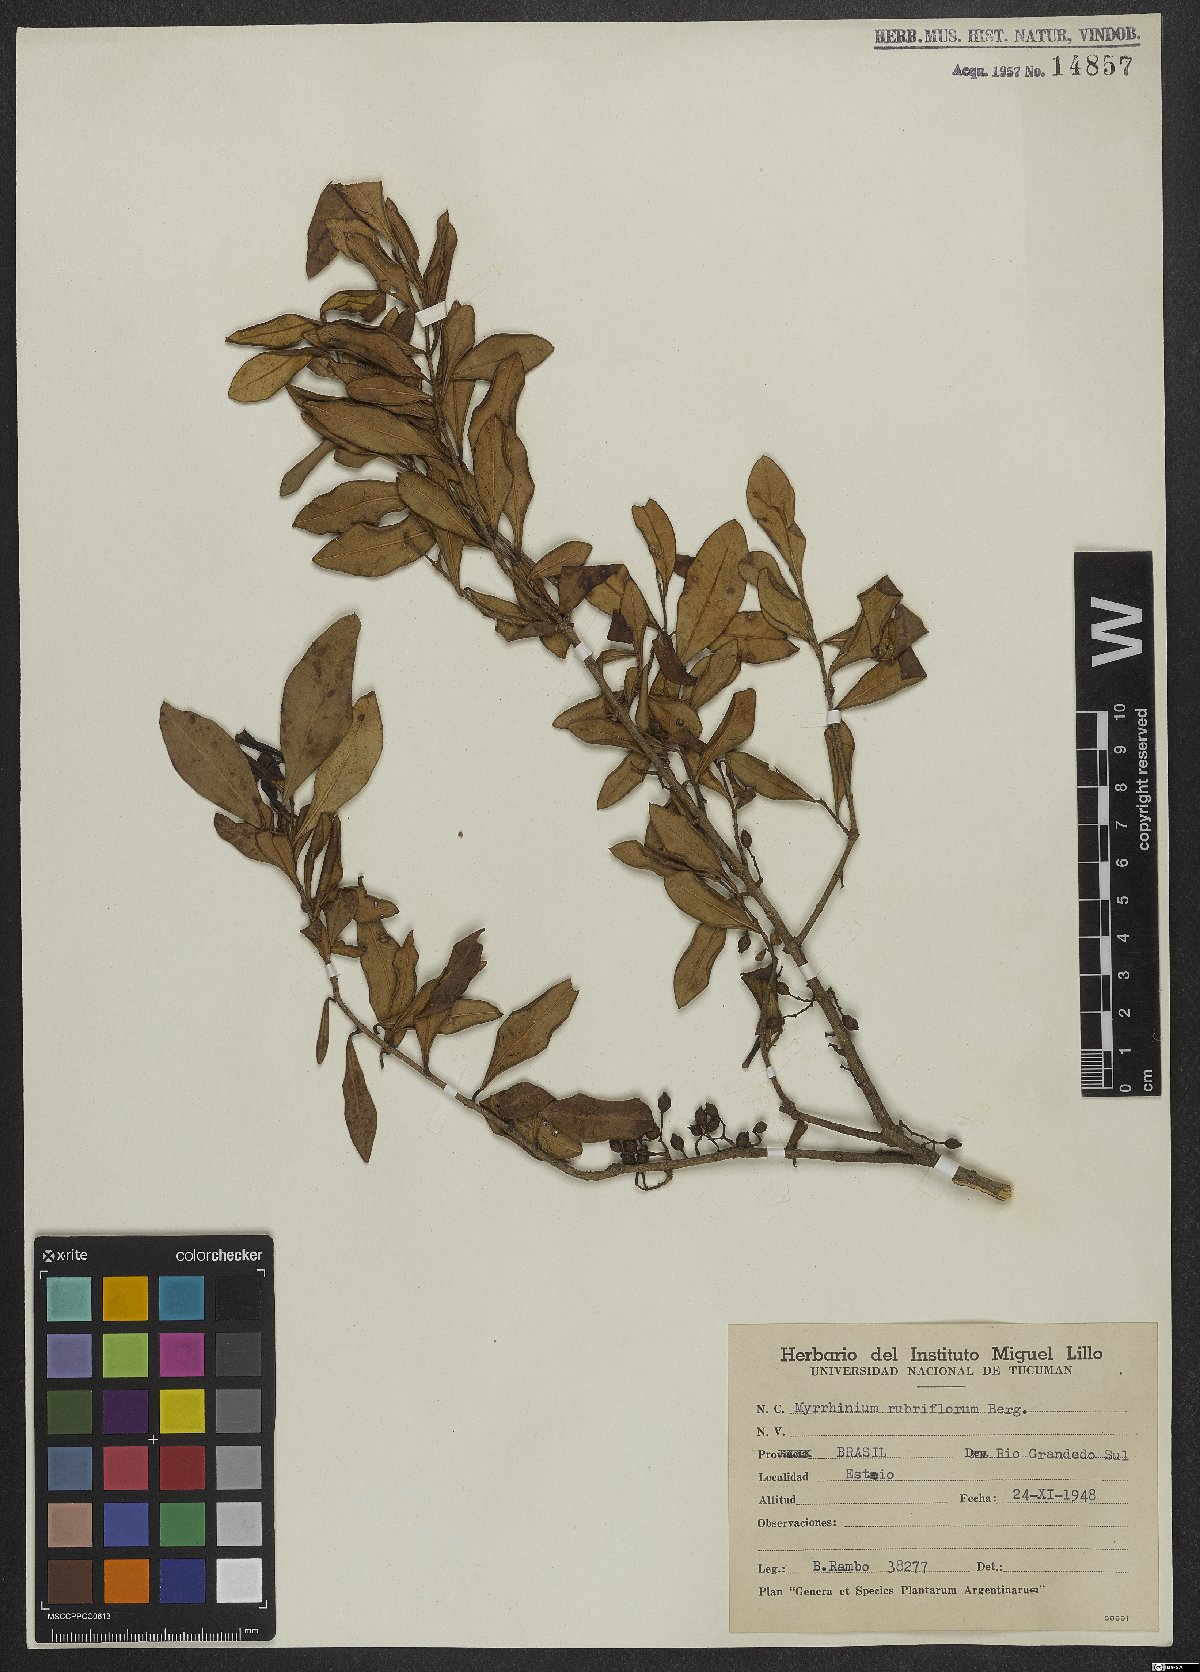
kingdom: Plantae
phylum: Tracheophyta
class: Magnoliopsida
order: Myrtales
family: Myrtaceae
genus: Myrrhinium
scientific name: Myrrhinium atropurpureum
